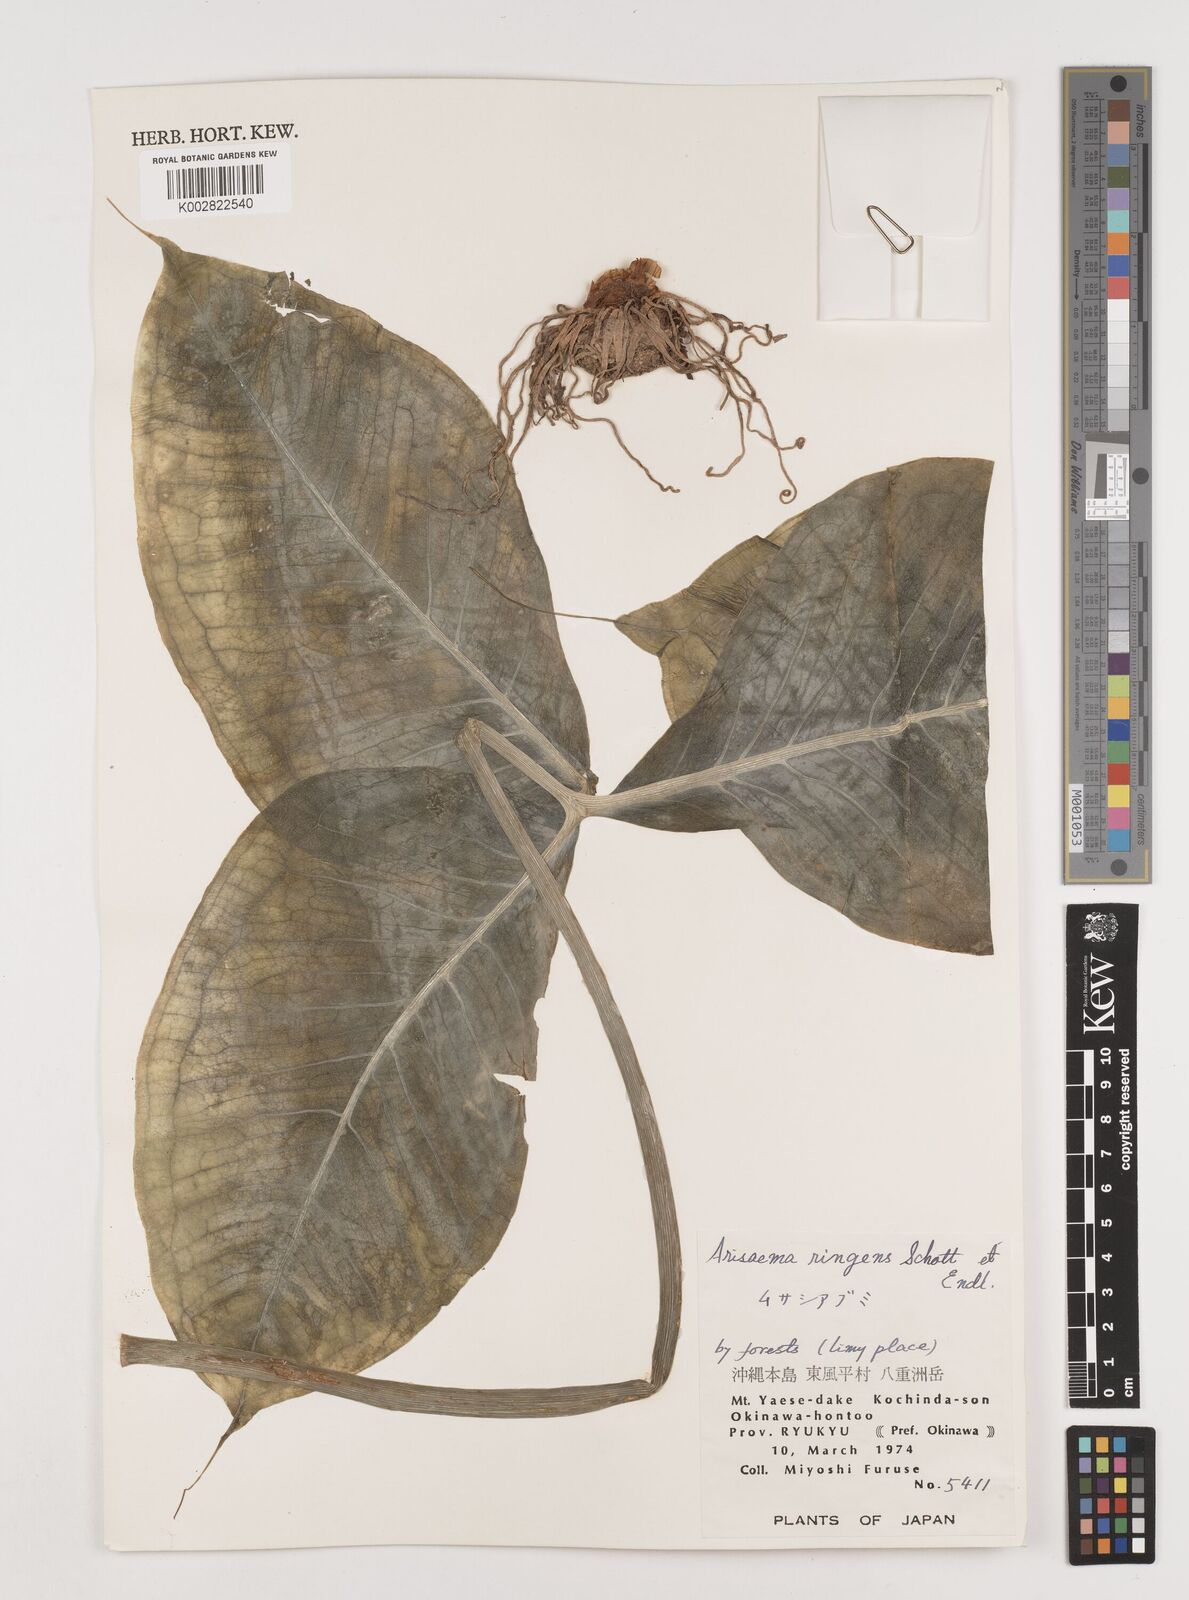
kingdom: Plantae
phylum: Tracheophyta
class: Liliopsida
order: Alismatales
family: Araceae
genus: Arisaema
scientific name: Arisaema ringens
